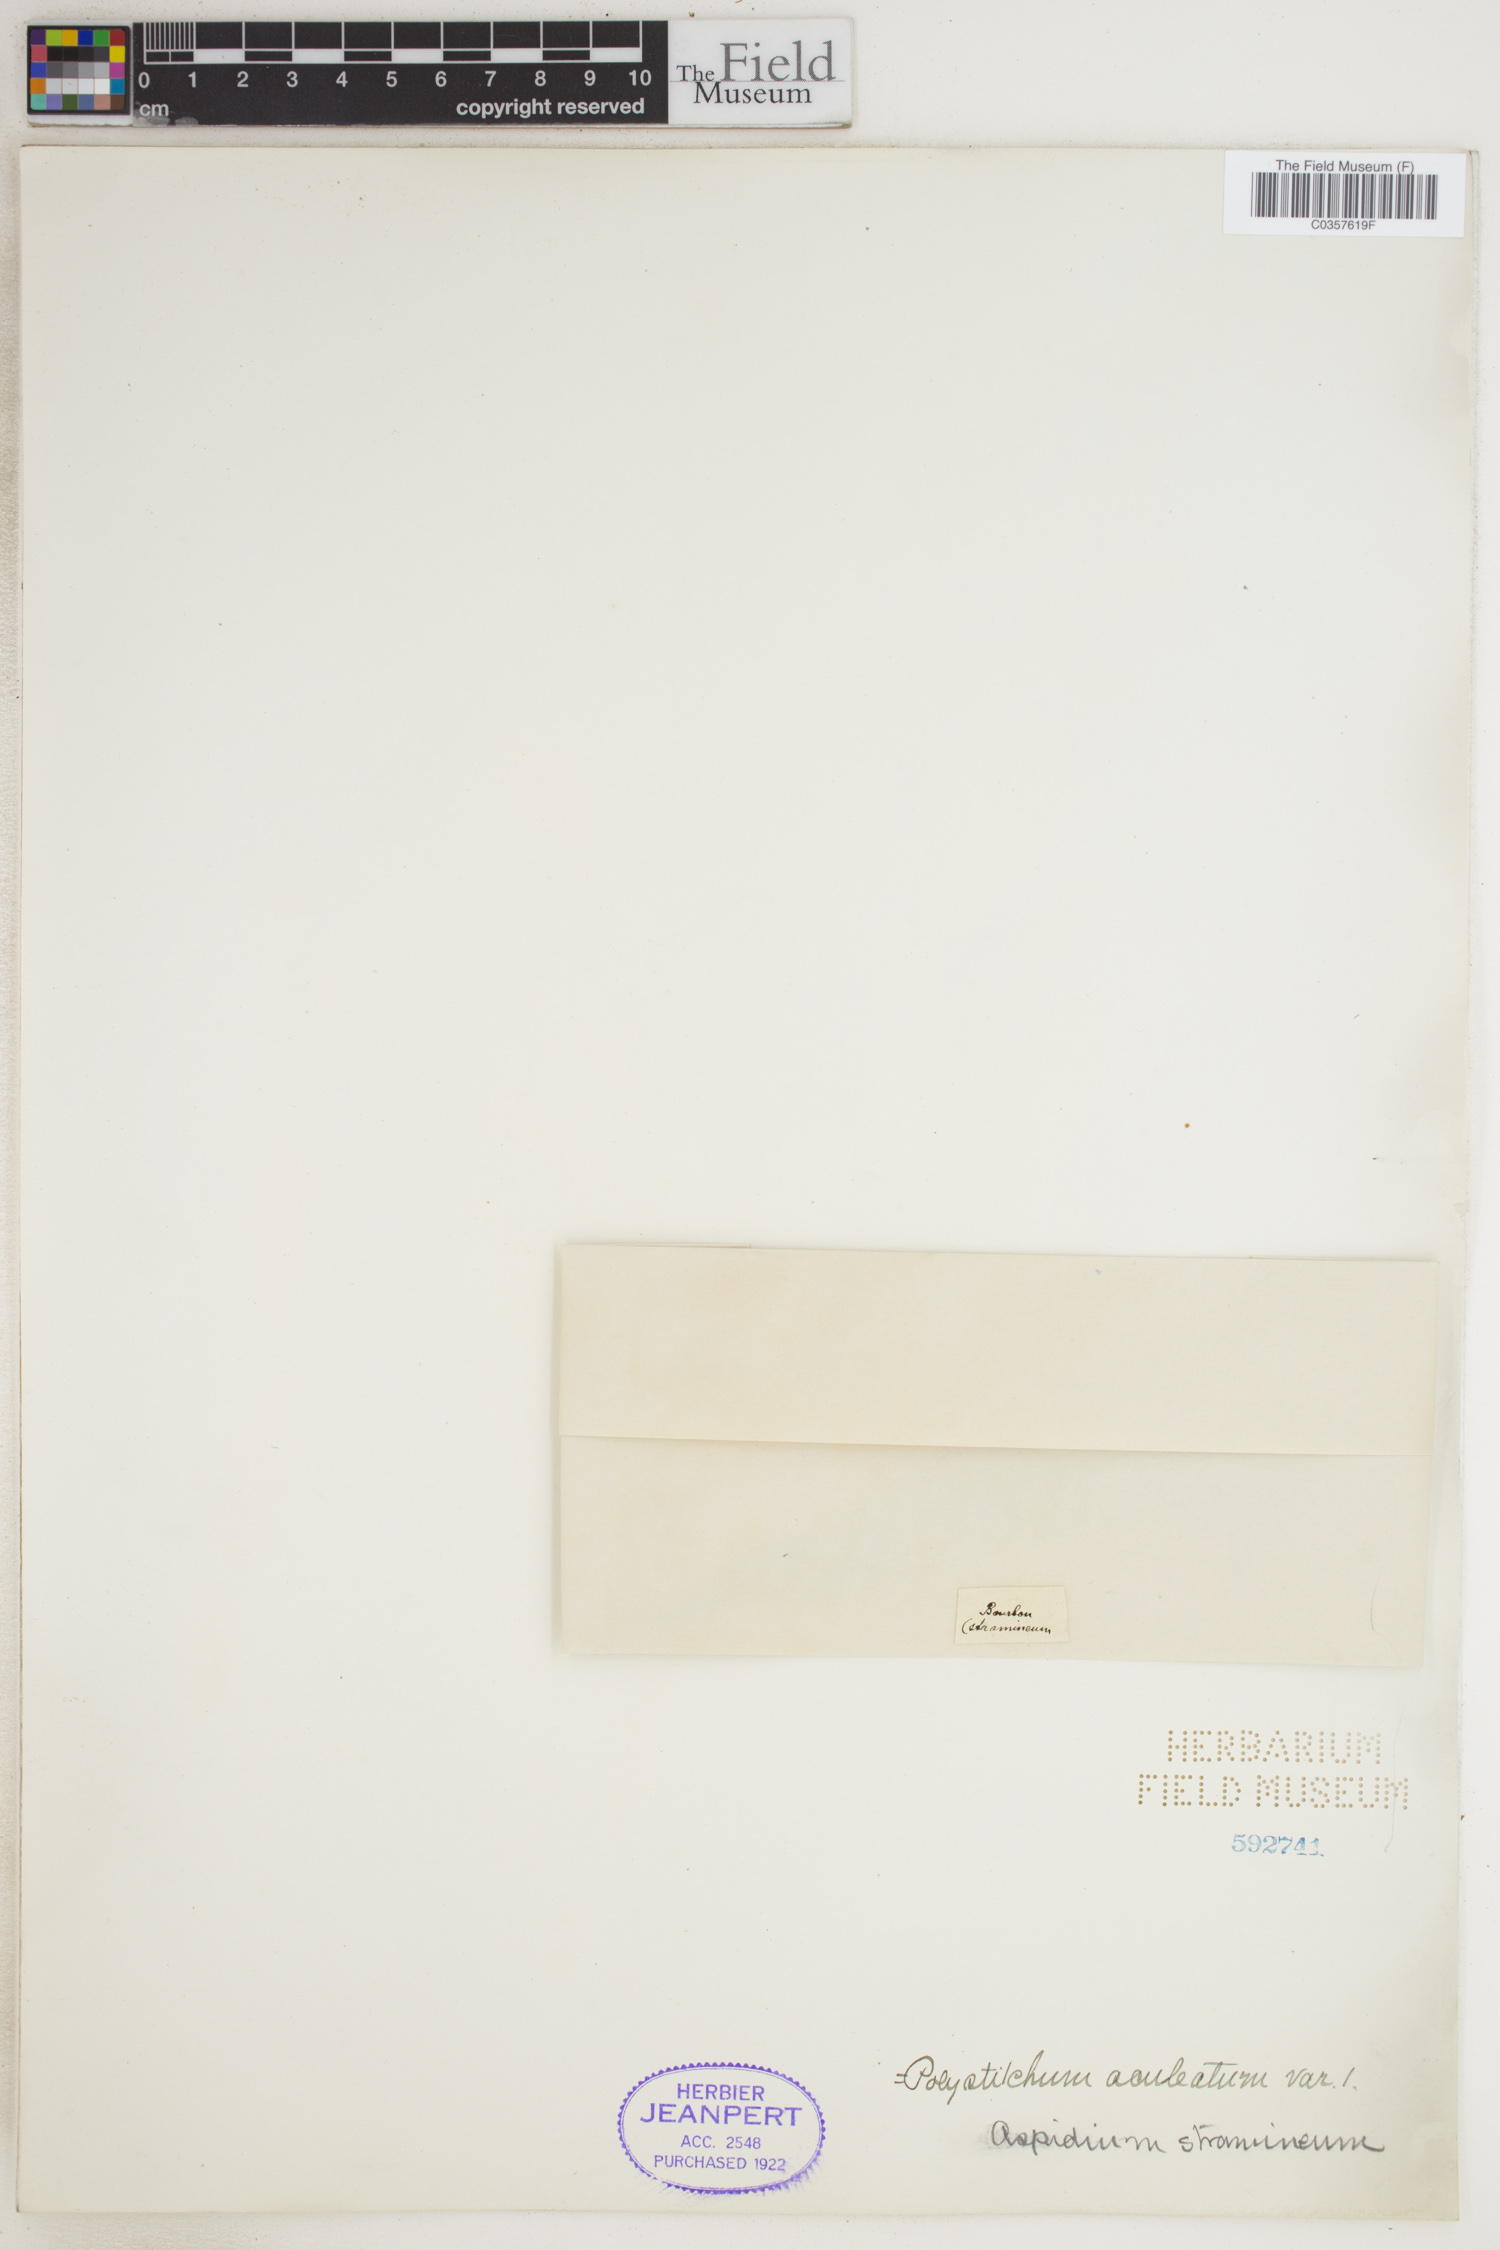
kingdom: Plantae
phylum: Tracheophyta
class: Polypodiopsida
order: Polypodiales
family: Dryopteridaceae
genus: Polystichum
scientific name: Polystichum aculeatum
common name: Hard shield-fern
